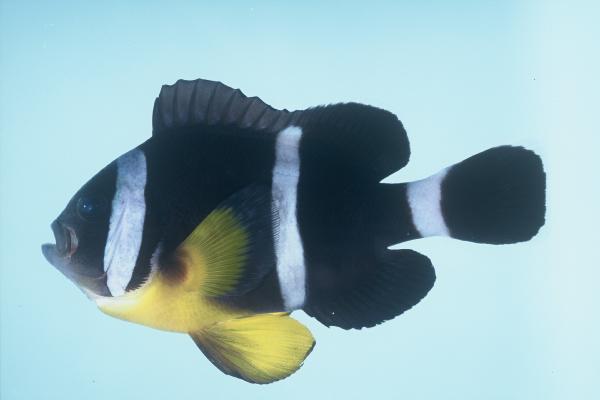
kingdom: Animalia
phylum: Chordata
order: Perciformes
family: Pomacentridae
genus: Amphiprion
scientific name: Amphiprion chrysogaster
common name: Mauritian anemonefish
